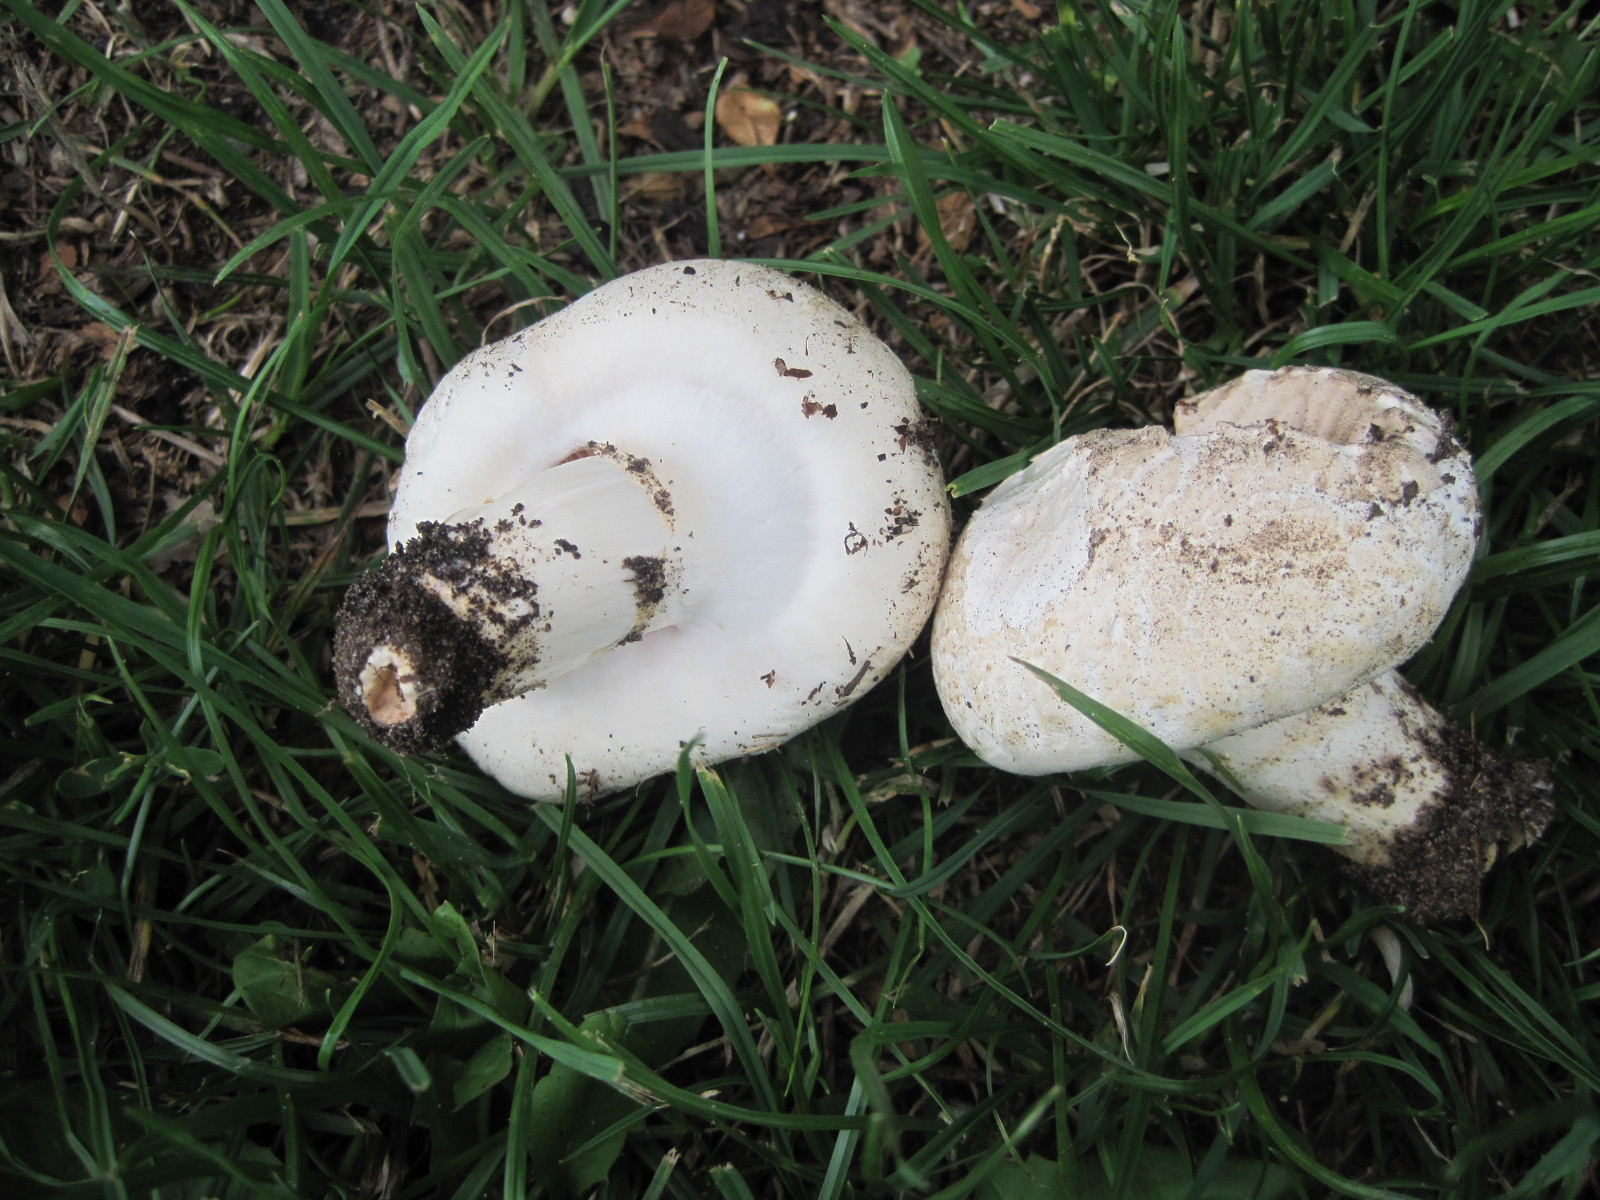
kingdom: Fungi
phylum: Basidiomycota
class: Agaricomycetes
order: Agaricales
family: Agaricaceae
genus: Agaricus
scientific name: Agaricus campestris
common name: mark-champignon
